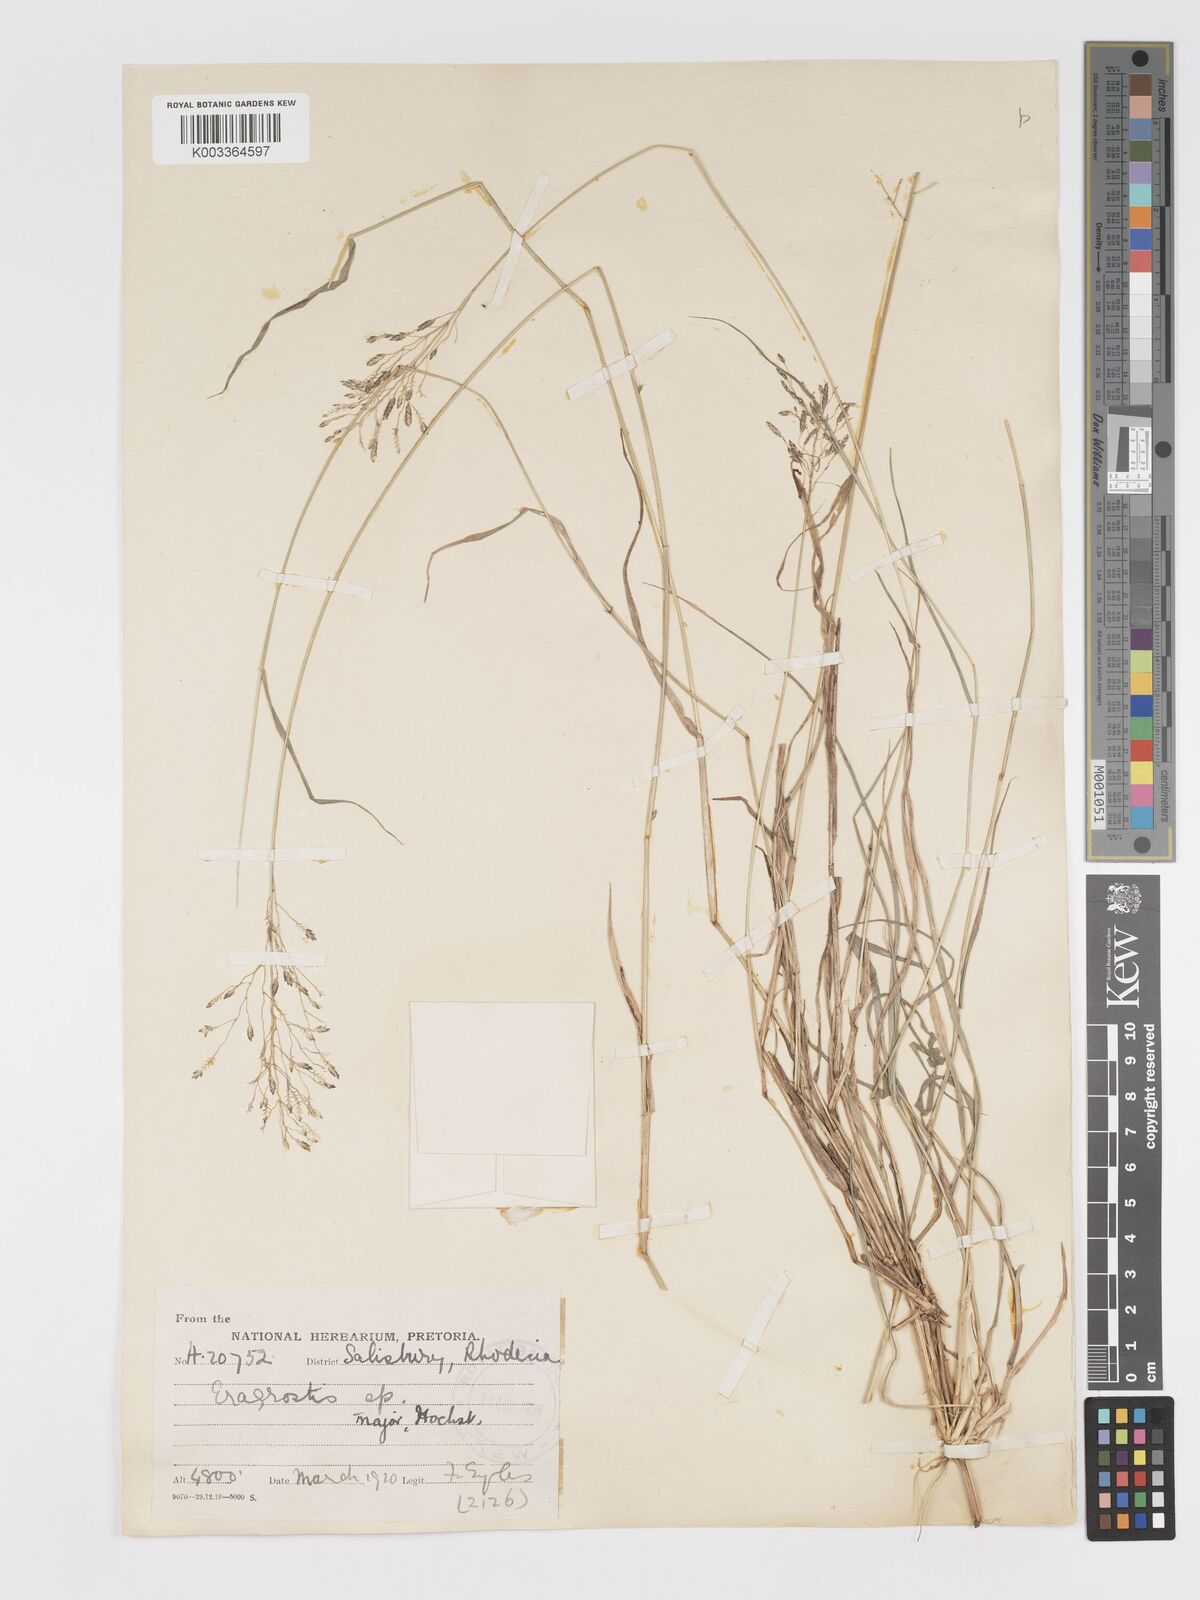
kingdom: Plantae
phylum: Tracheophyta
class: Liliopsida
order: Poales
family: Poaceae
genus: Eragrostis
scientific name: Eragrostis patentipilosa
